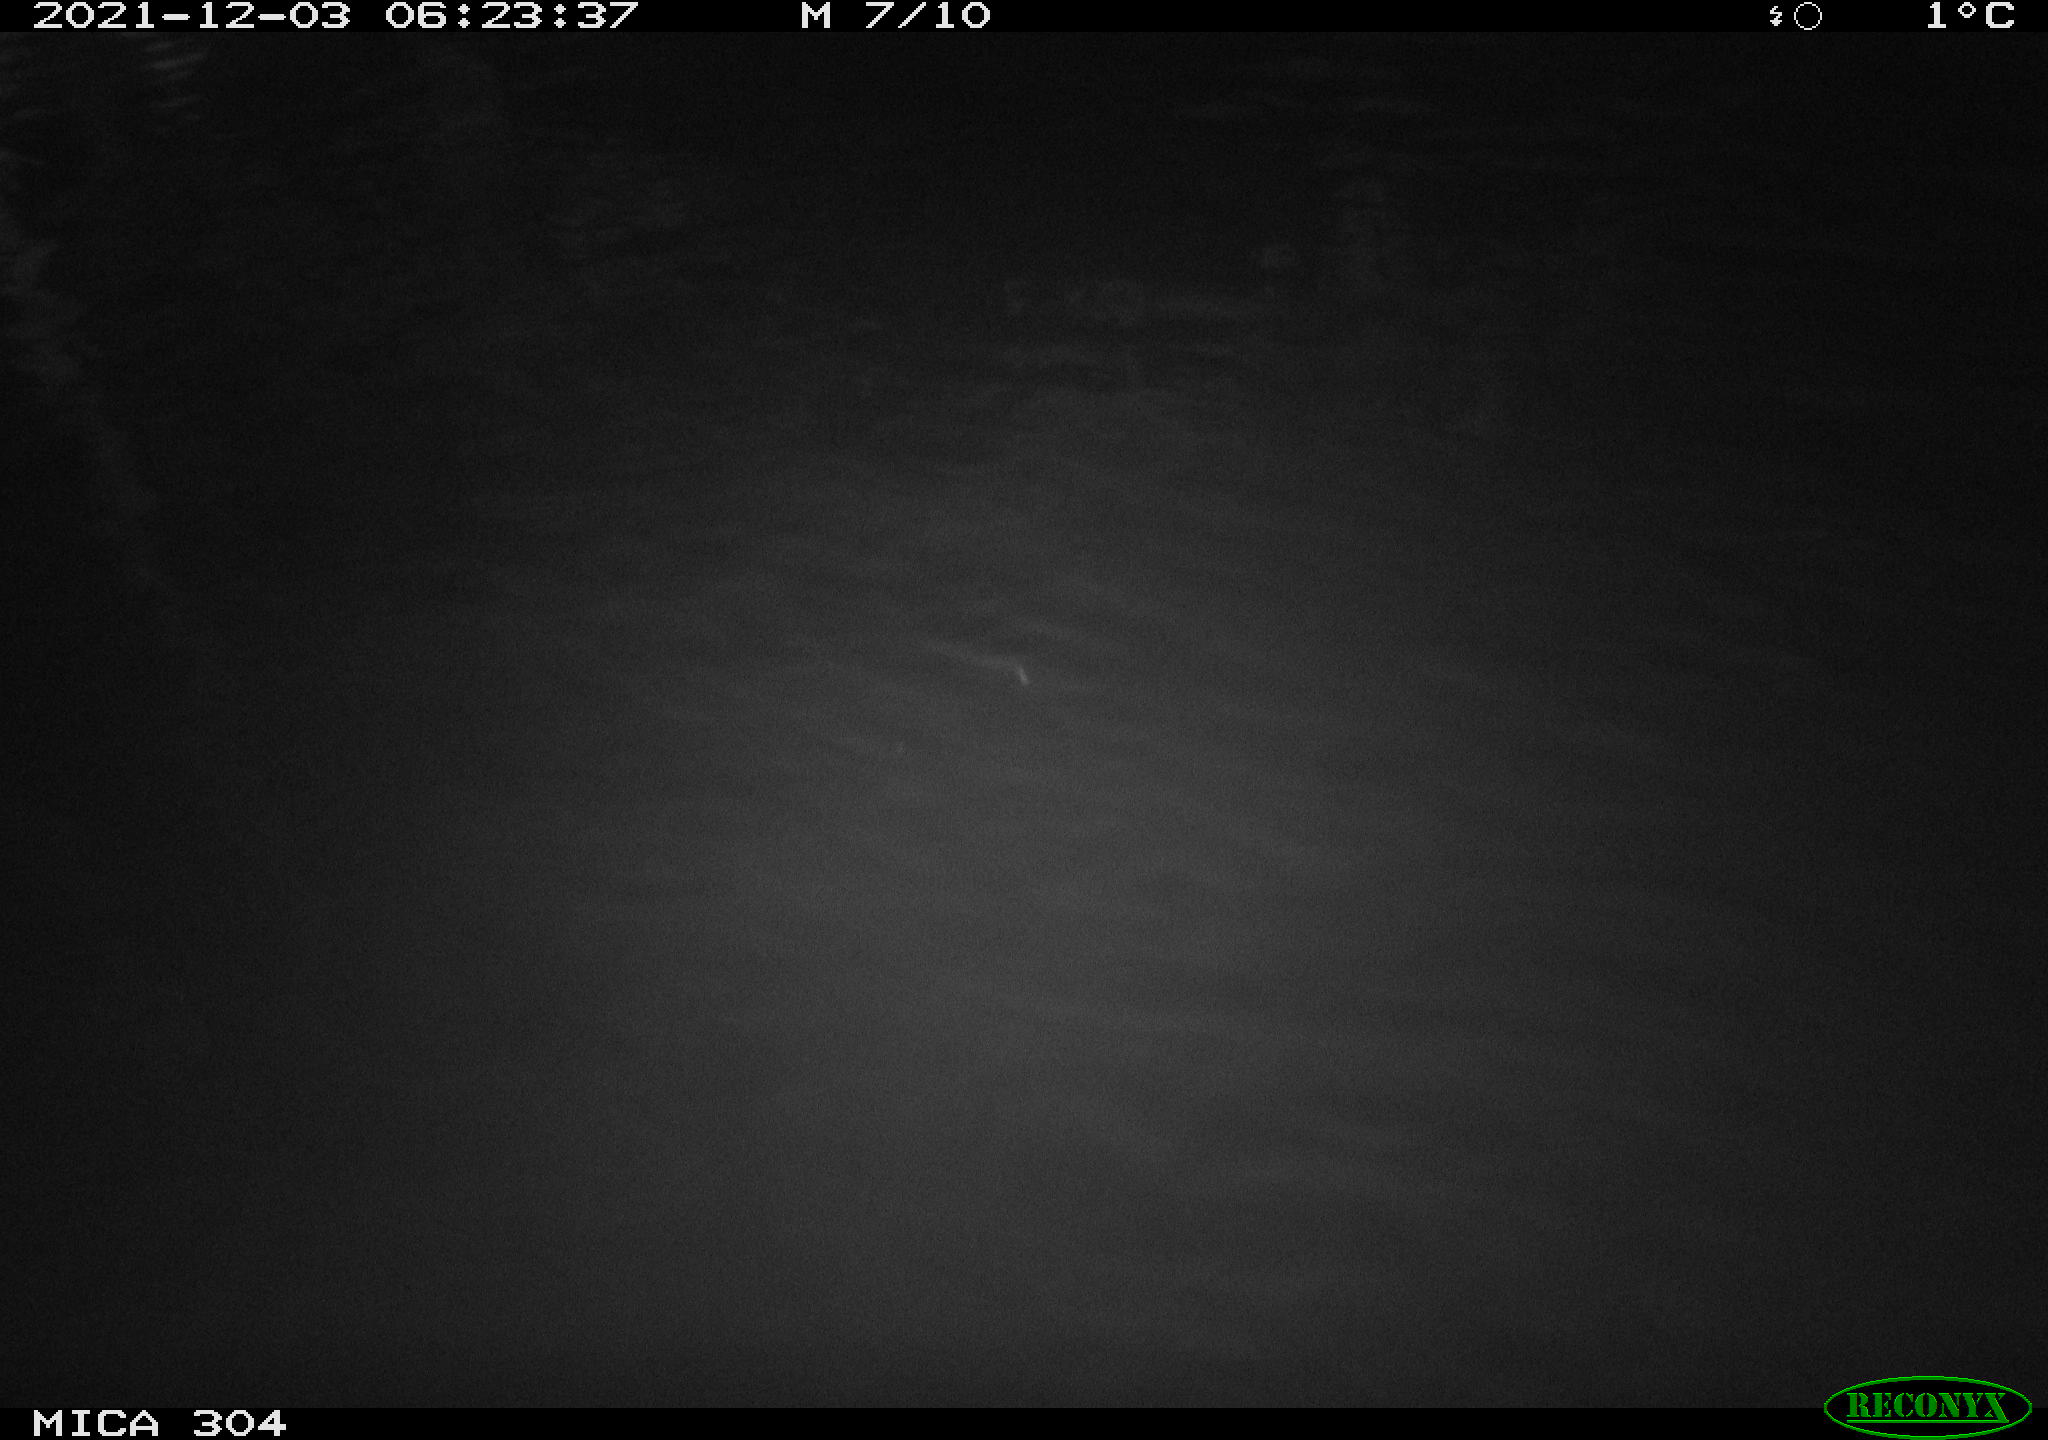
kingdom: Animalia
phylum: Chordata
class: Mammalia
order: Rodentia
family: Muridae
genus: Rattus
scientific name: Rattus norvegicus
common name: Brown rat
